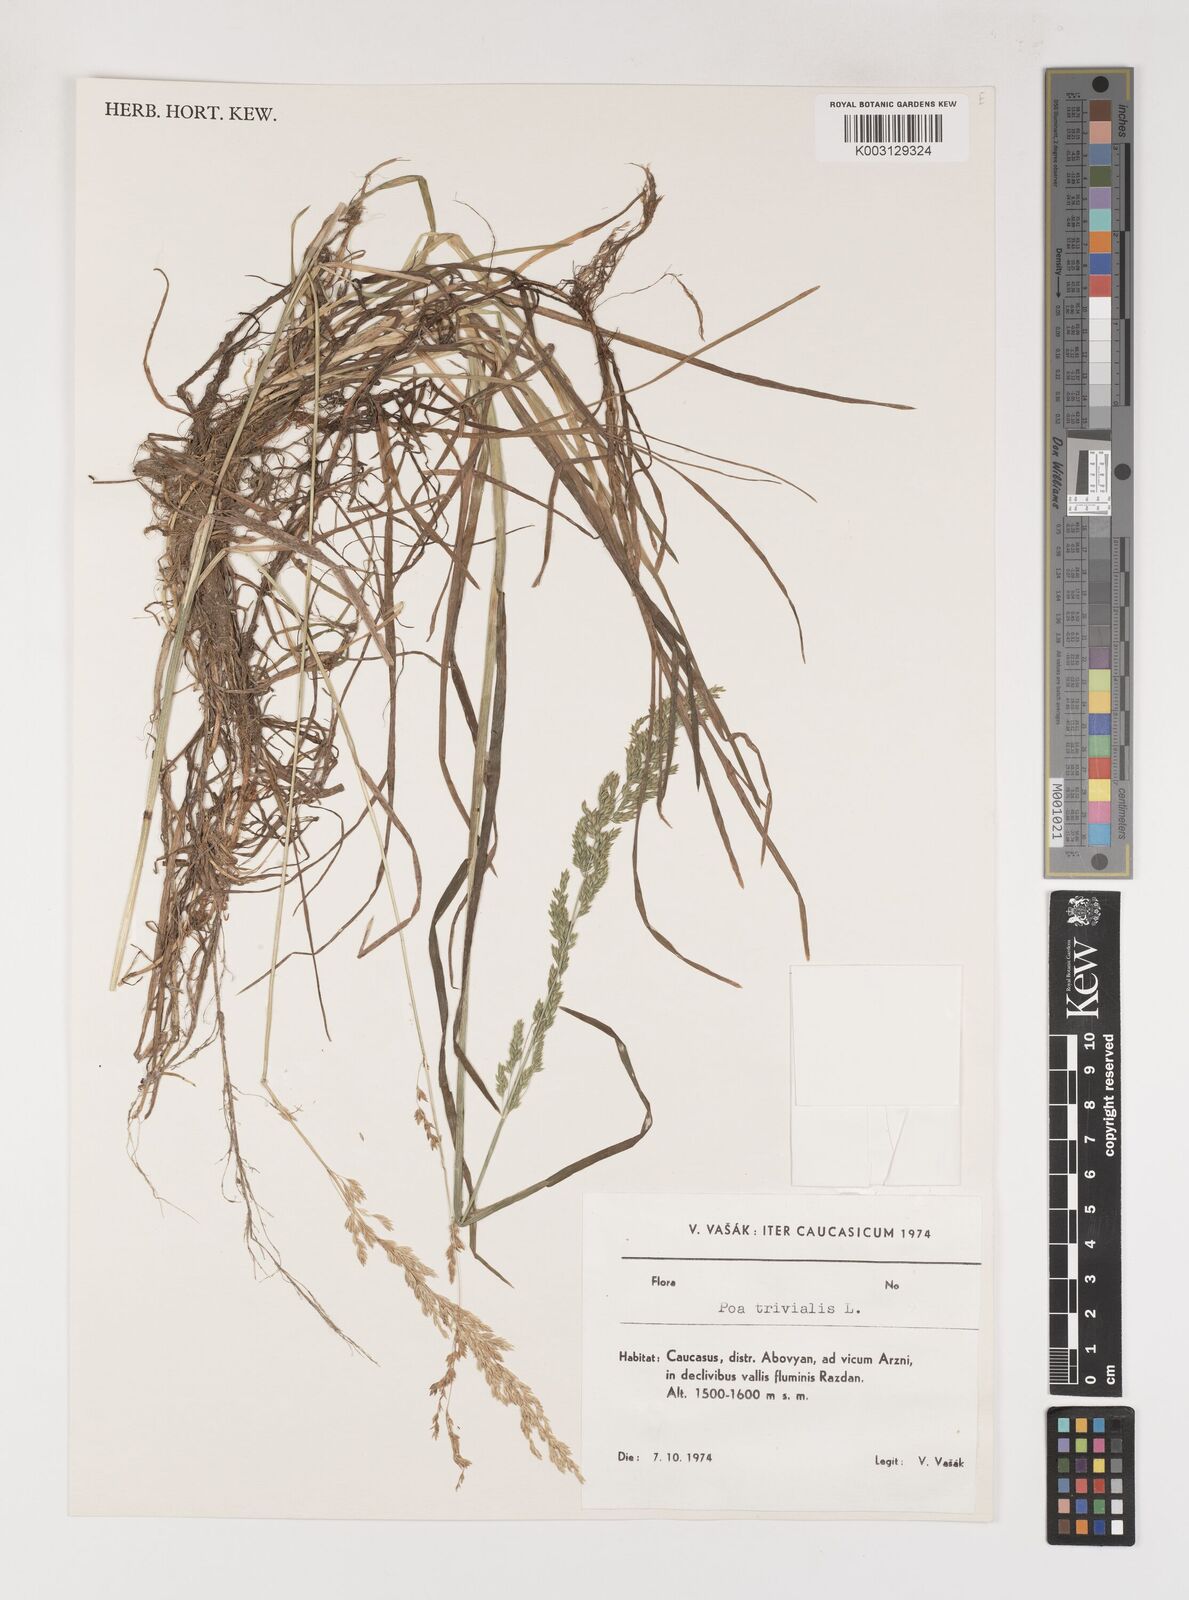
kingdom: Plantae
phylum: Tracheophyta
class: Liliopsida
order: Poales
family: Poaceae
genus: Poa
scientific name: Poa trivialis
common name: Rough bluegrass
